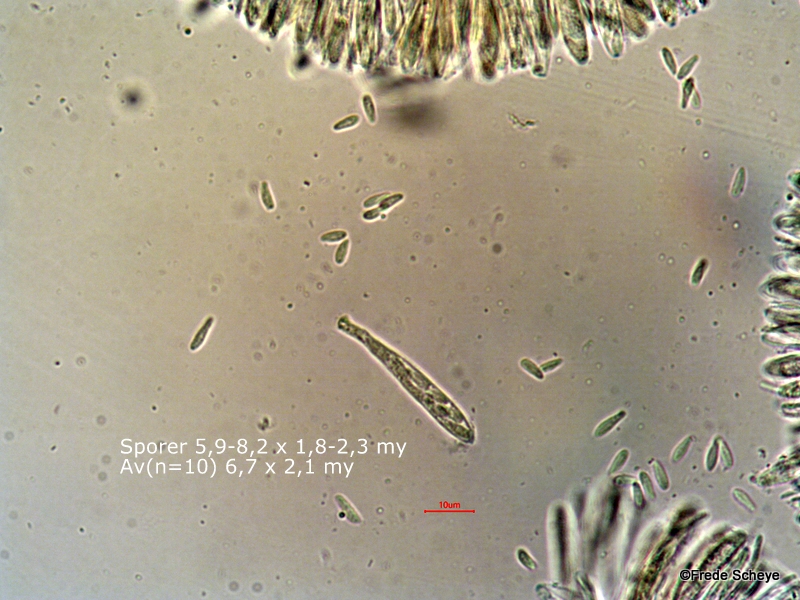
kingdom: Fungi
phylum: Ascomycota
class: Leotiomycetes
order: Helotiales
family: Arachnopezizaceae
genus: Eriopezia
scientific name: Eriopezia caesia
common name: ege-spindskive
